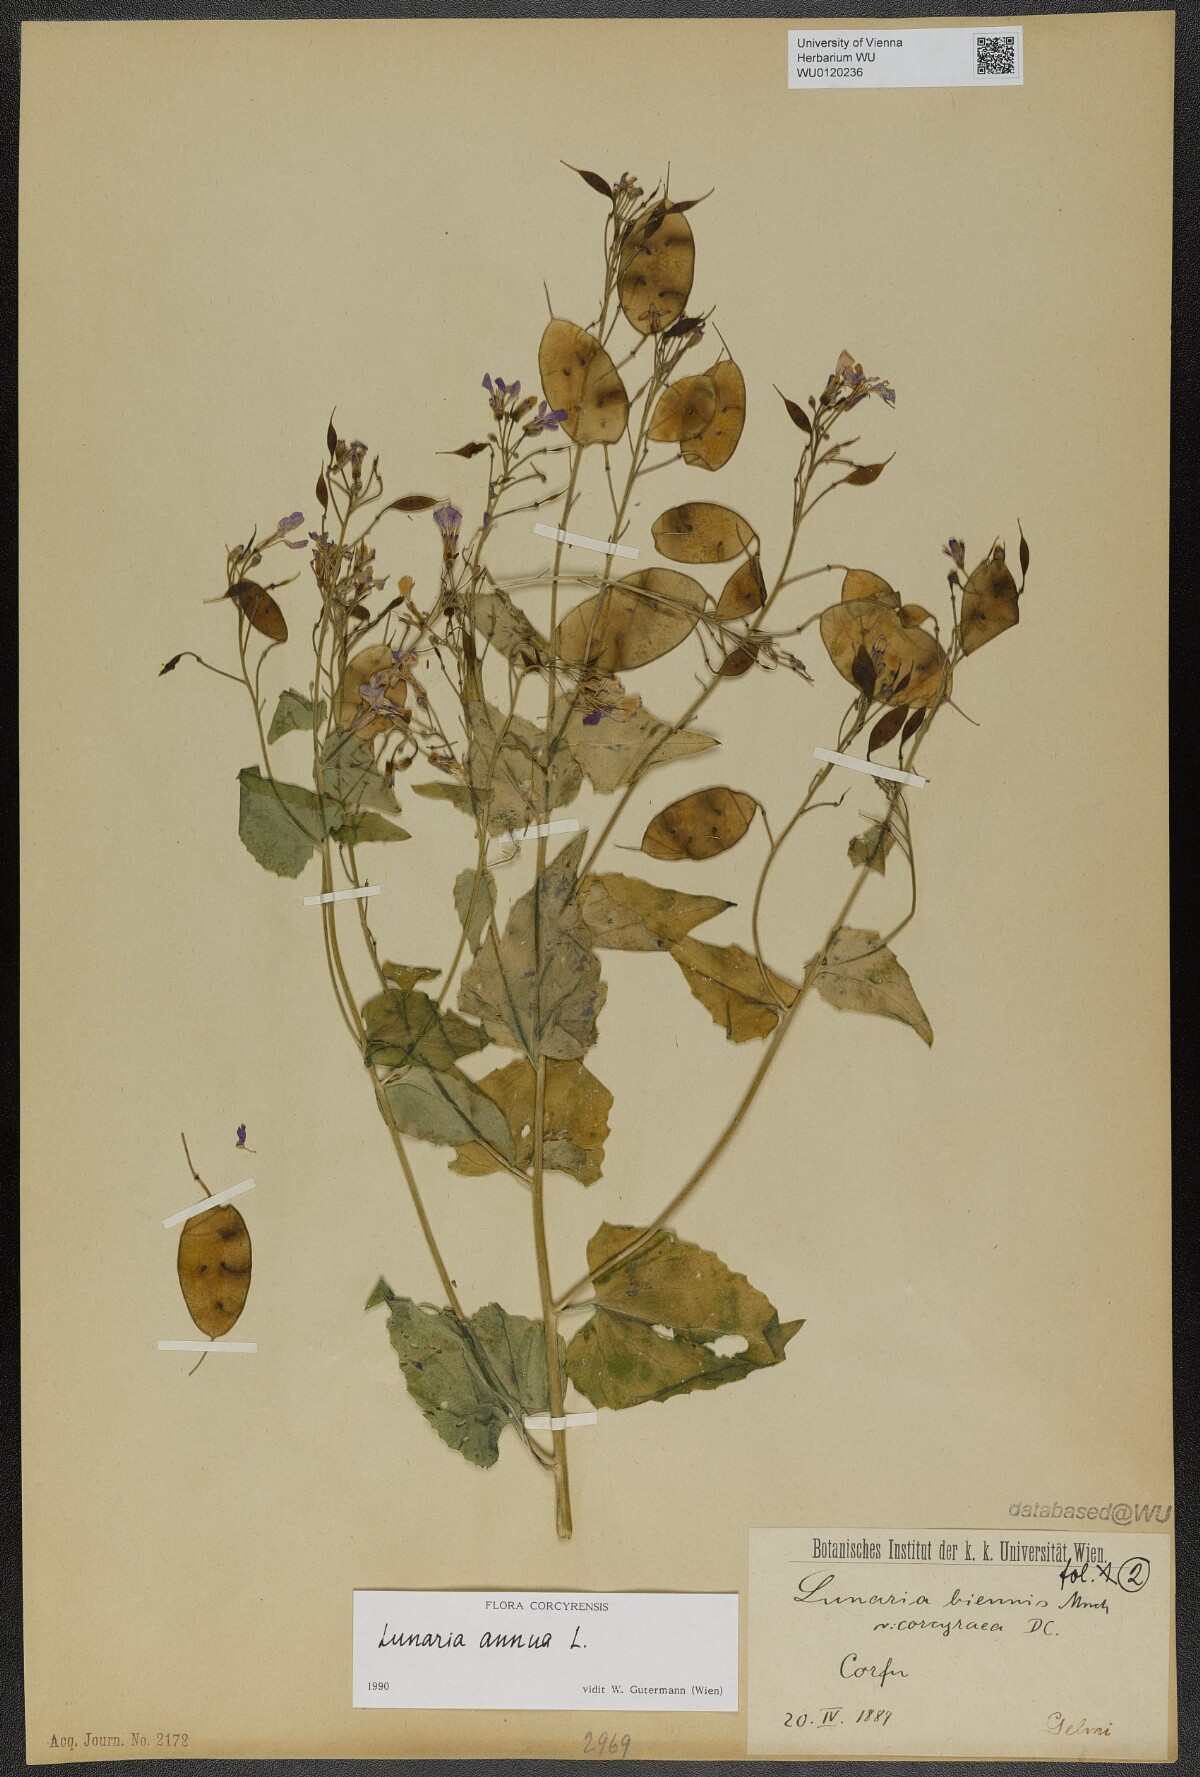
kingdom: Plantae
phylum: Tracheophyta
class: Magnoliopsida
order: Brassicales
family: Brassicaceae
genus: Lunaria
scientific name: Lunaria annua
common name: Honesty
